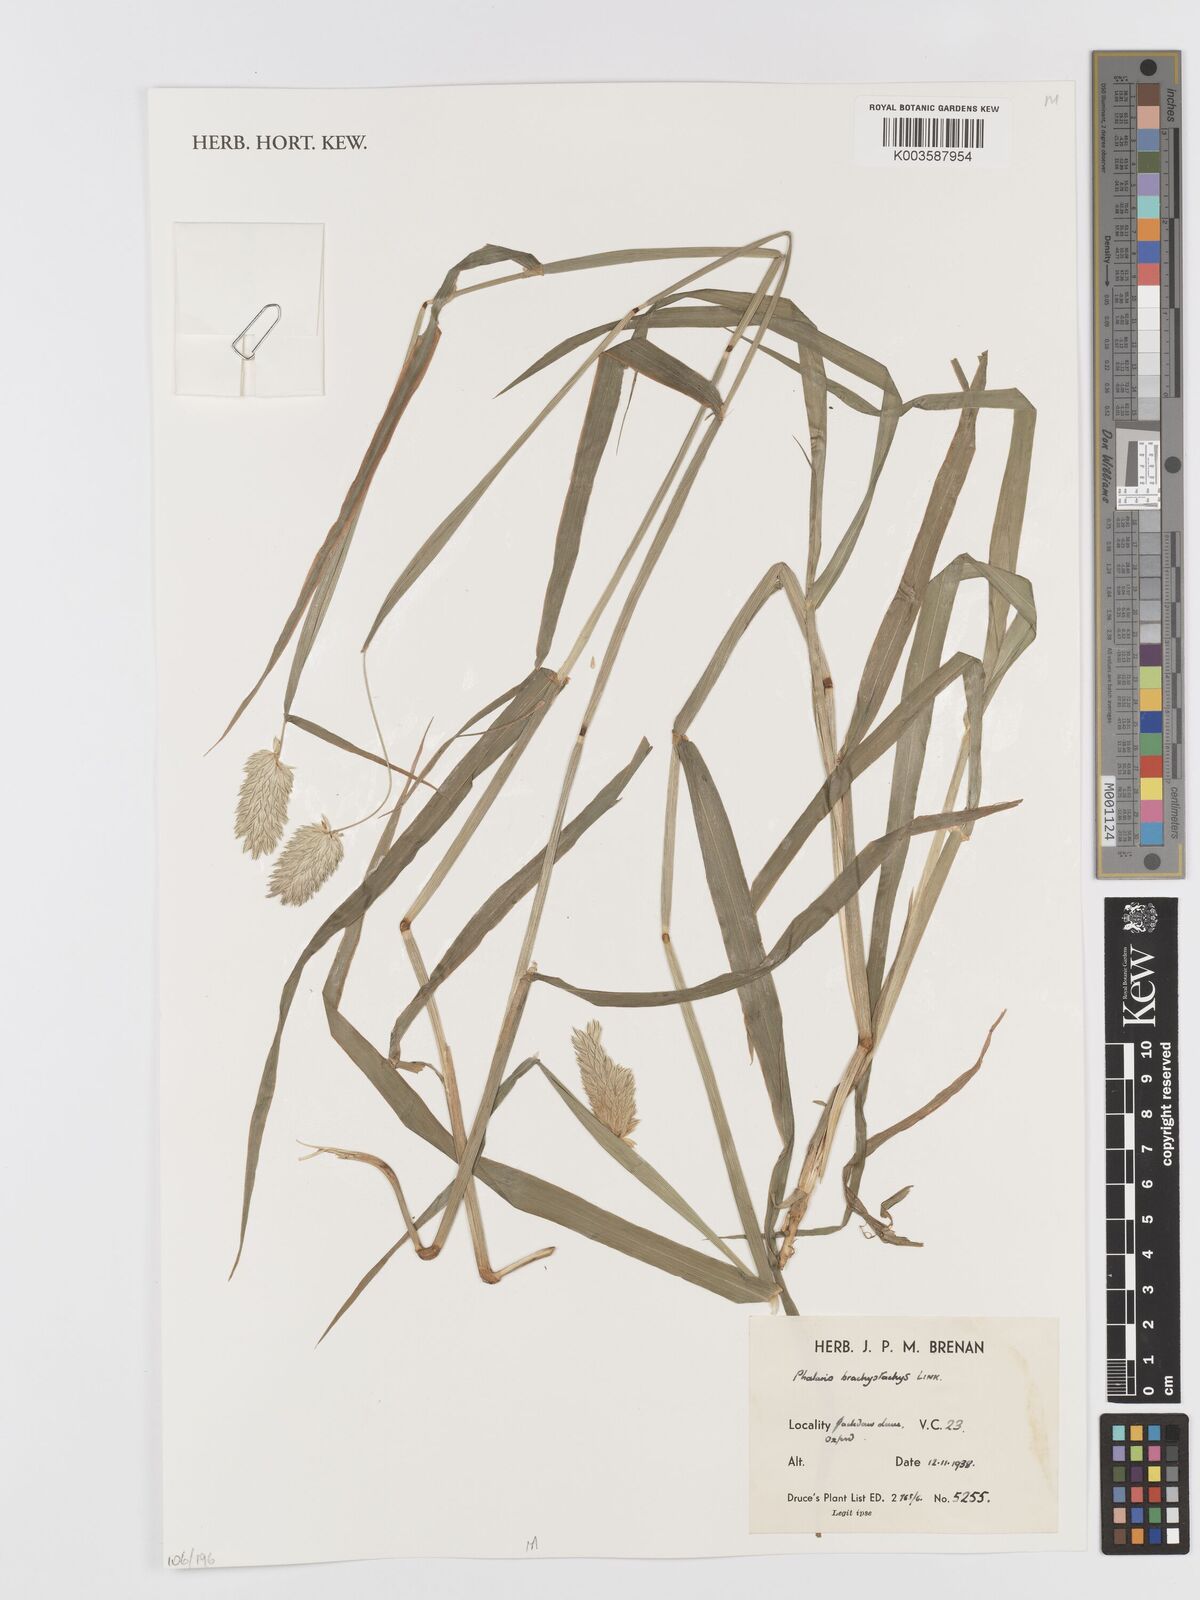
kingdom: Plantae
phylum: Tracheophyta
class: Liliopsida
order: Poales
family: Poaceae
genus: Phalaris
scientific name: Phalaris brachystachys
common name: Confused canary-grass
